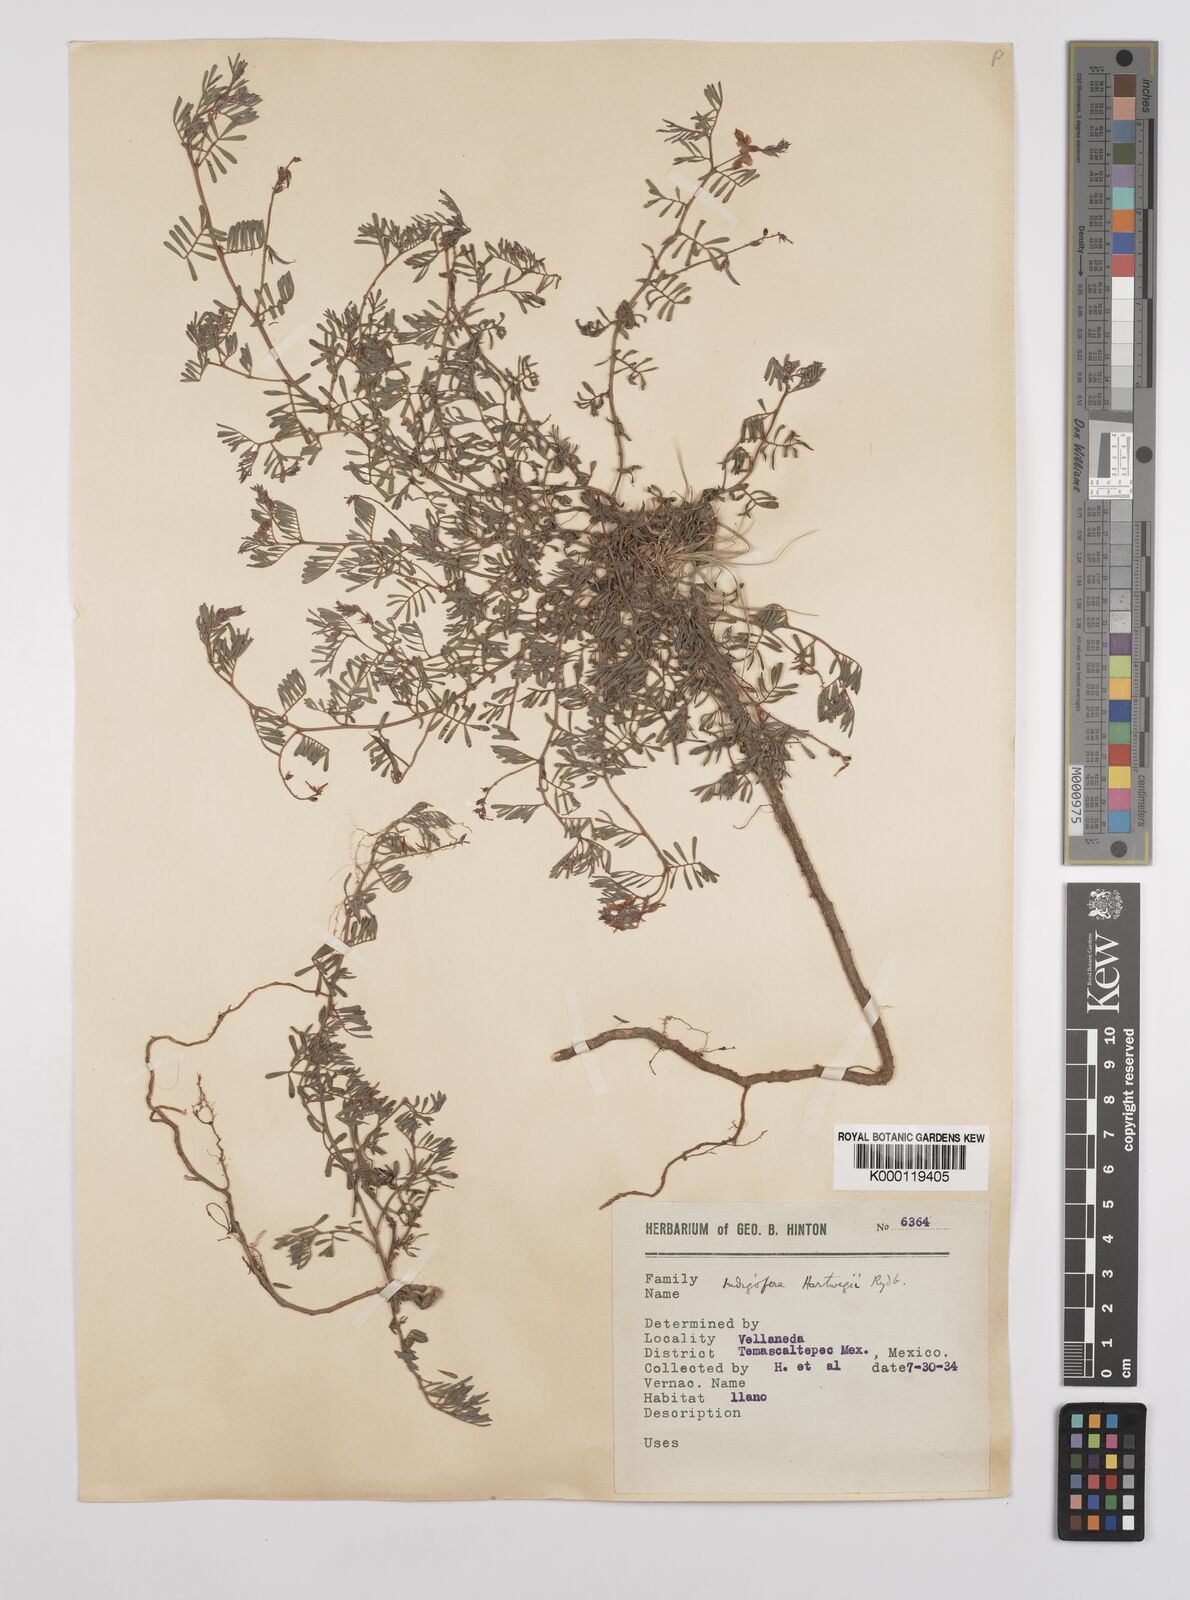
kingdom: Plantae
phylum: Tracheophyta
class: Magnoliopsida
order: Fabales
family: Fabaceae
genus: Indigofera
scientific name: Indigofera miniata
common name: Coast indigo
